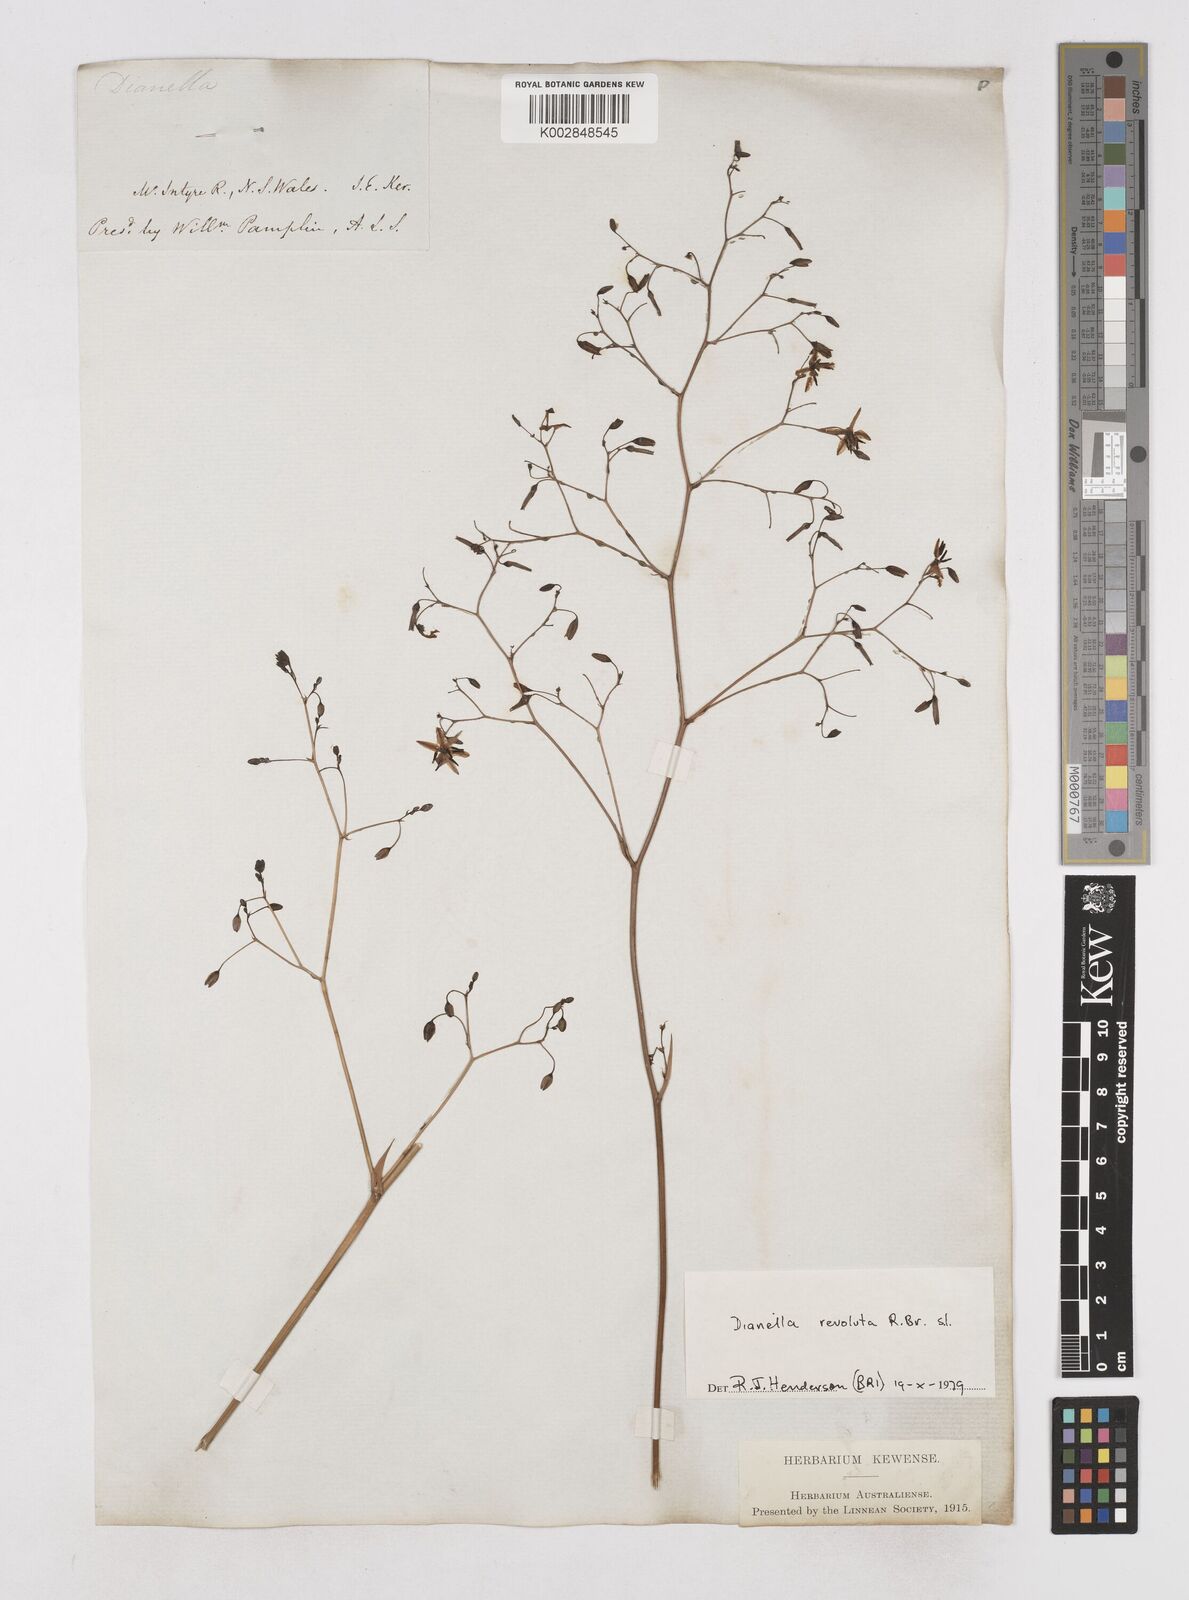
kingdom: Plantae
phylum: Tracheophyta
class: Liliopsida
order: Asparagales
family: Asphodelaceae
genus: Dianella
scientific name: Dianella revoluta
